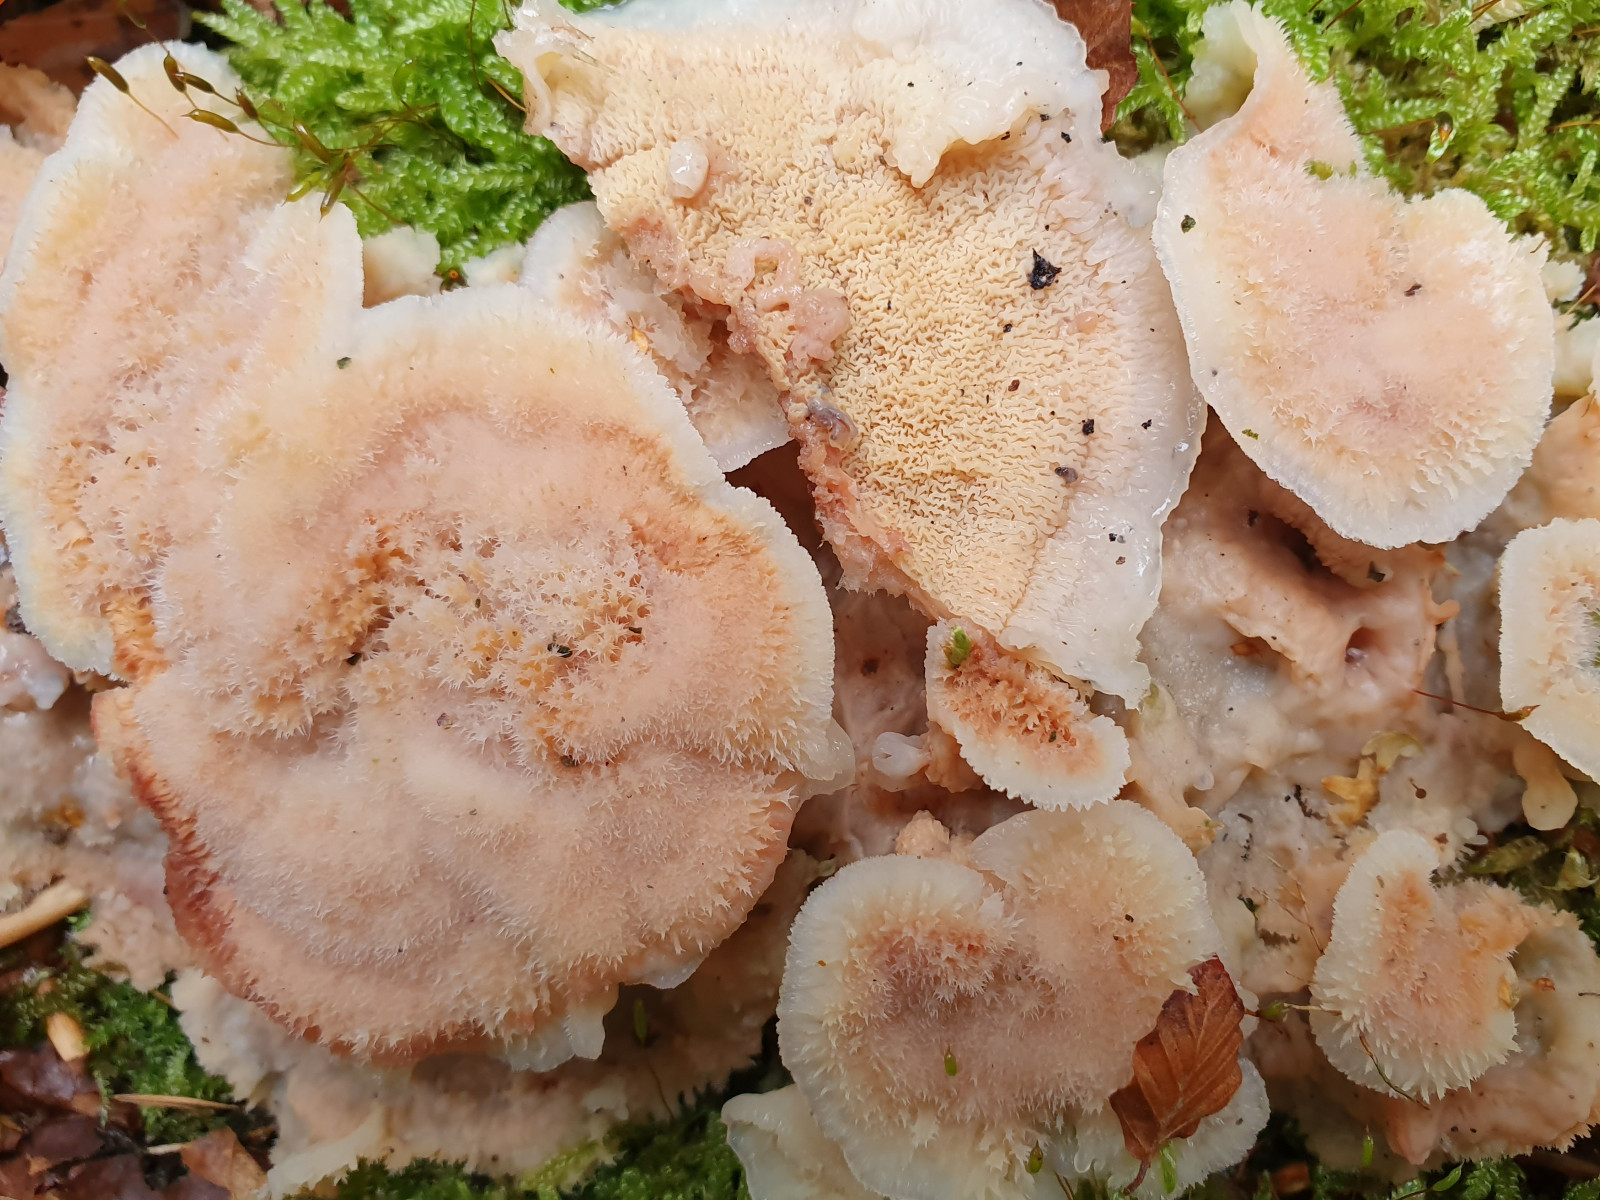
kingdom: Fungi
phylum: Basidiomycota
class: Agaricomycetes
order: Polyporales
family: Meruliaceae
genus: Phlebia
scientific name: Phlebia tremellosa
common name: bævrende åresvamp
